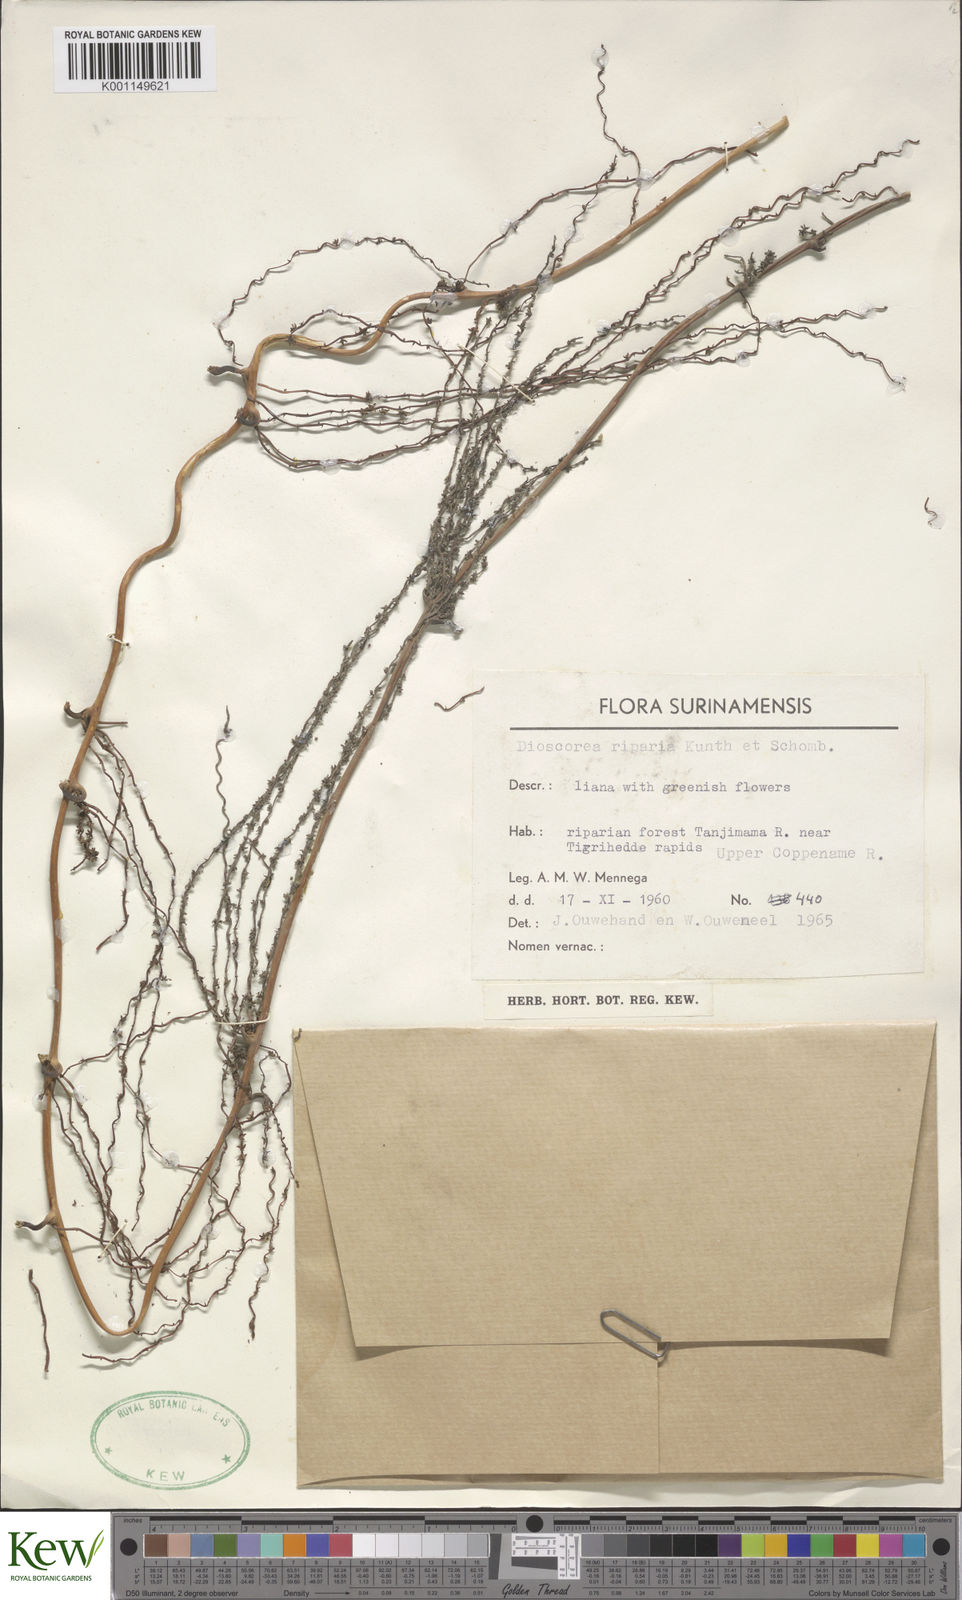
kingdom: Plantae
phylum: Tracheophyta
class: Liliopsida
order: Dioscoreales
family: Dioscoreaceae
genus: Dioscorea
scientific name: Dioscorea chondrocarpa
